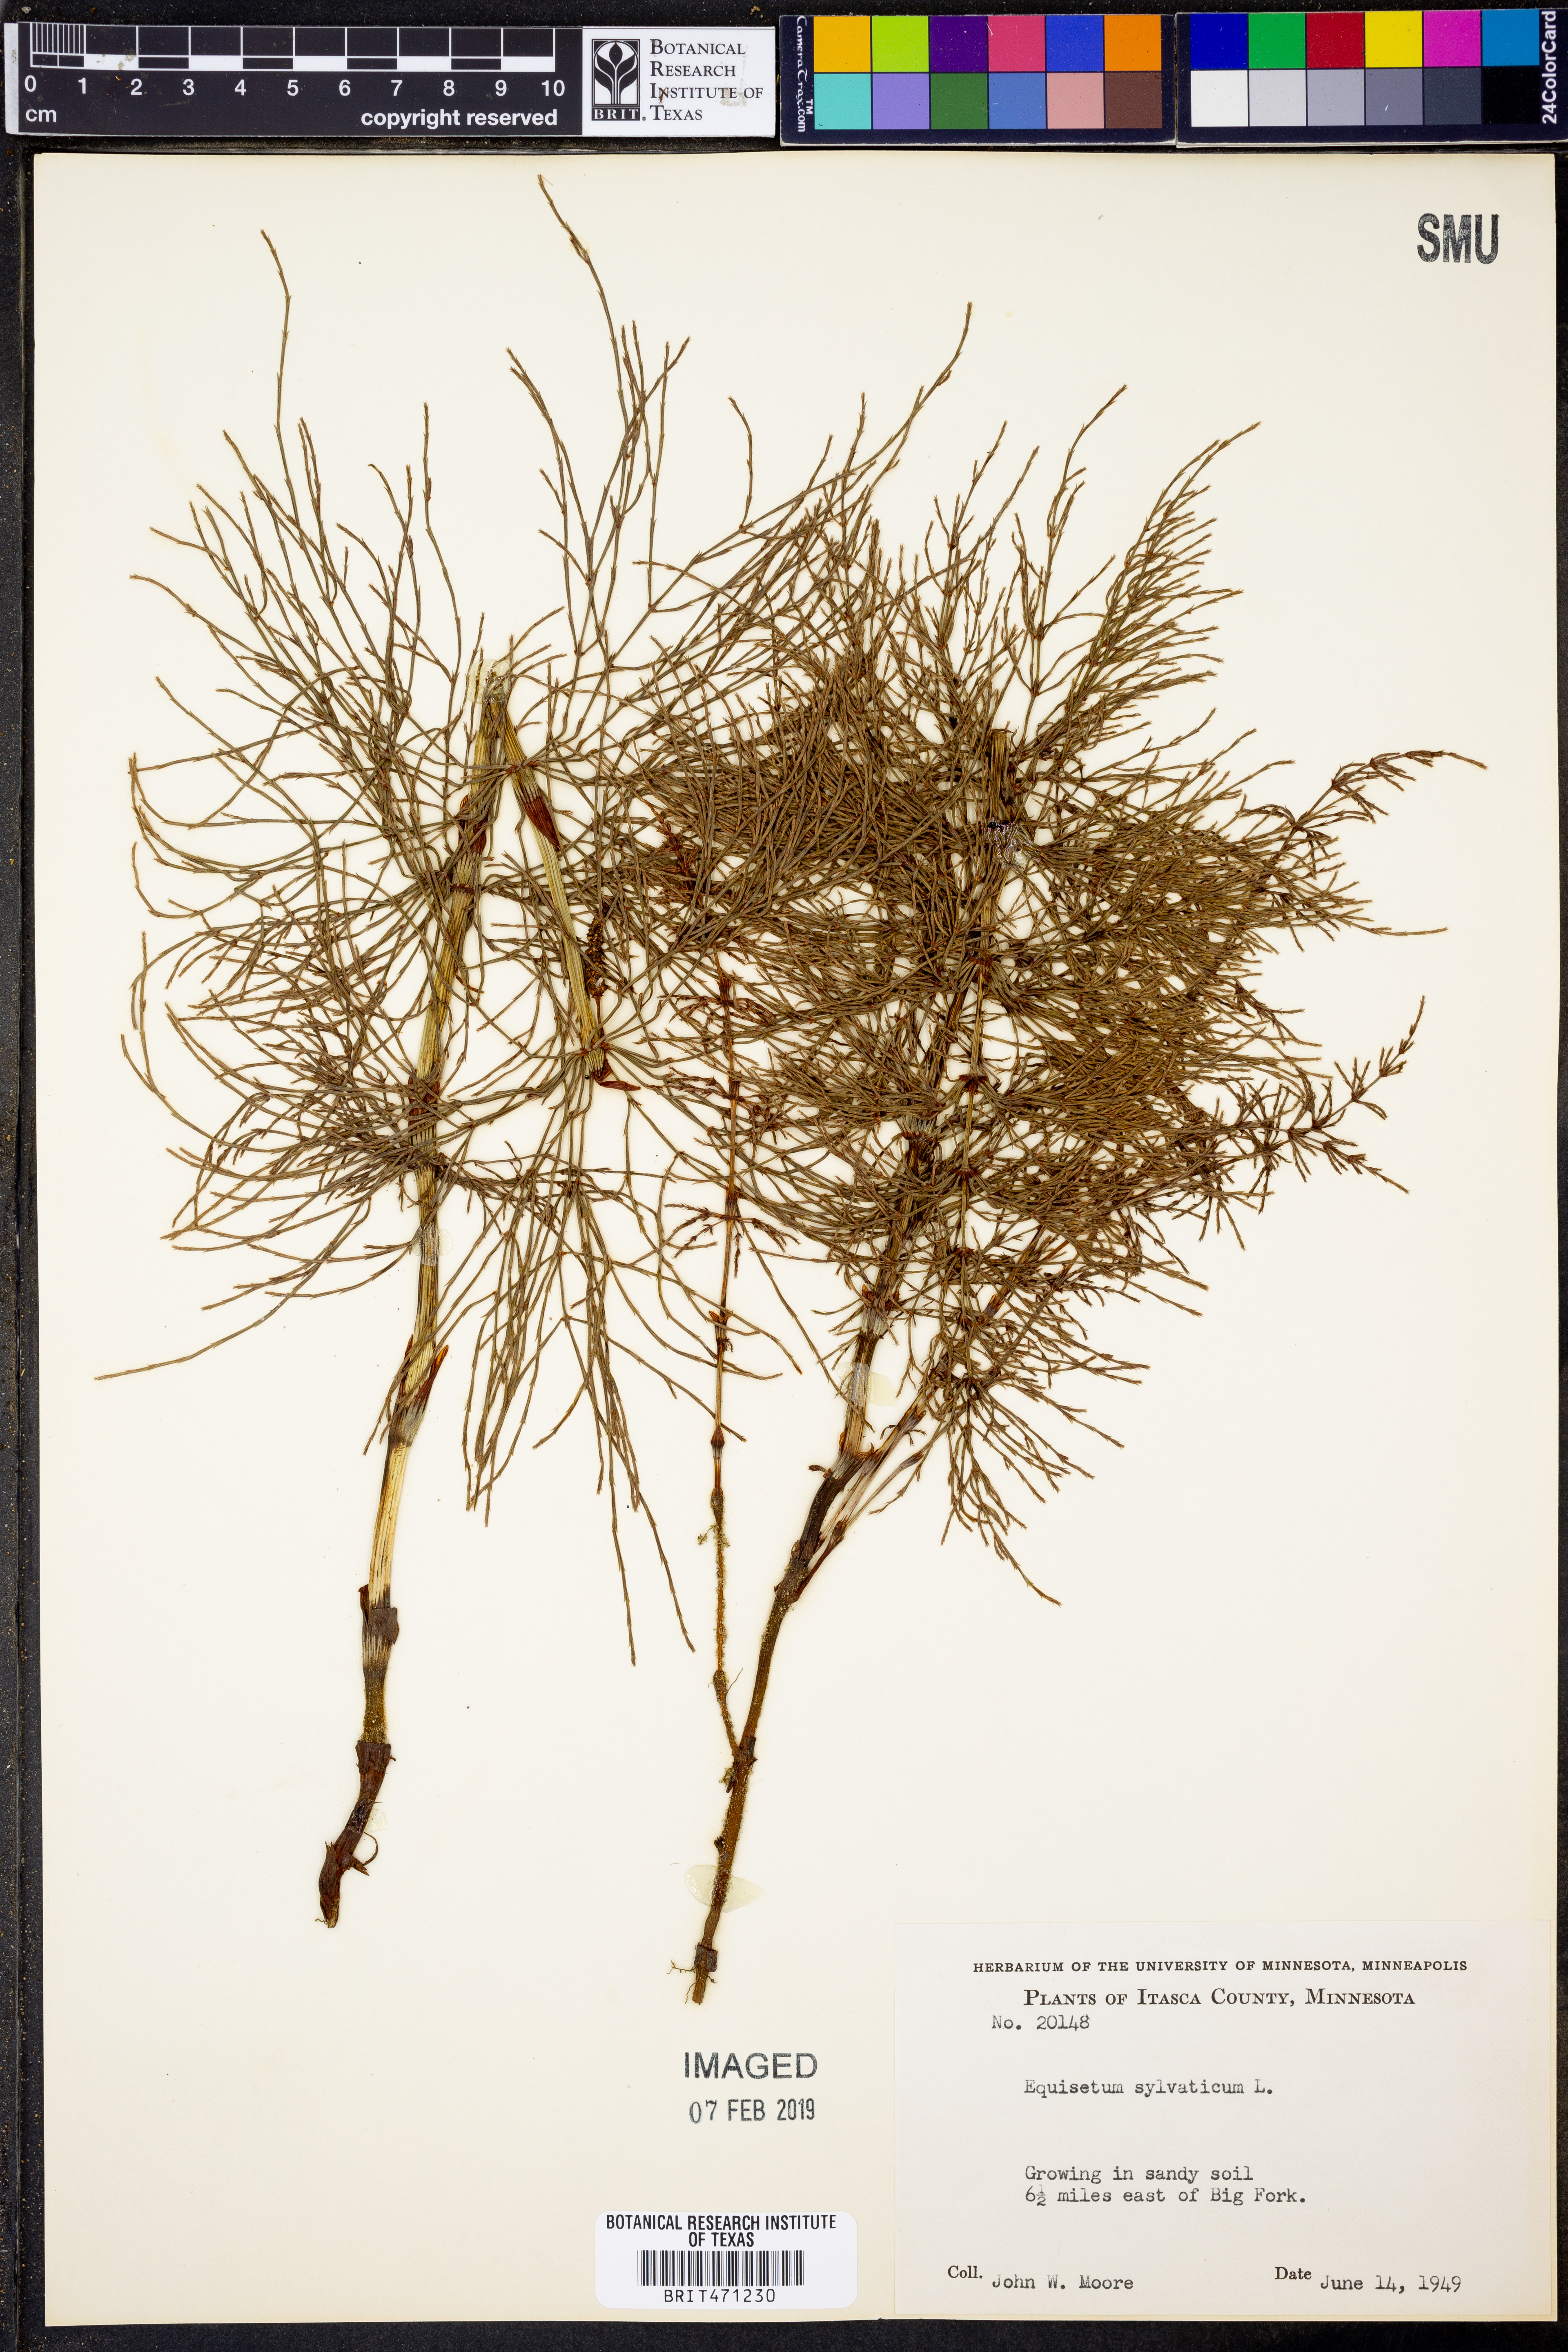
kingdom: Plantae
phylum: Tracheophyta
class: Polypodiopsida
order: Equisetales
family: Equisetaceae
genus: Equisetum
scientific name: Equisetum sylvaticum
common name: Wood horsetail
